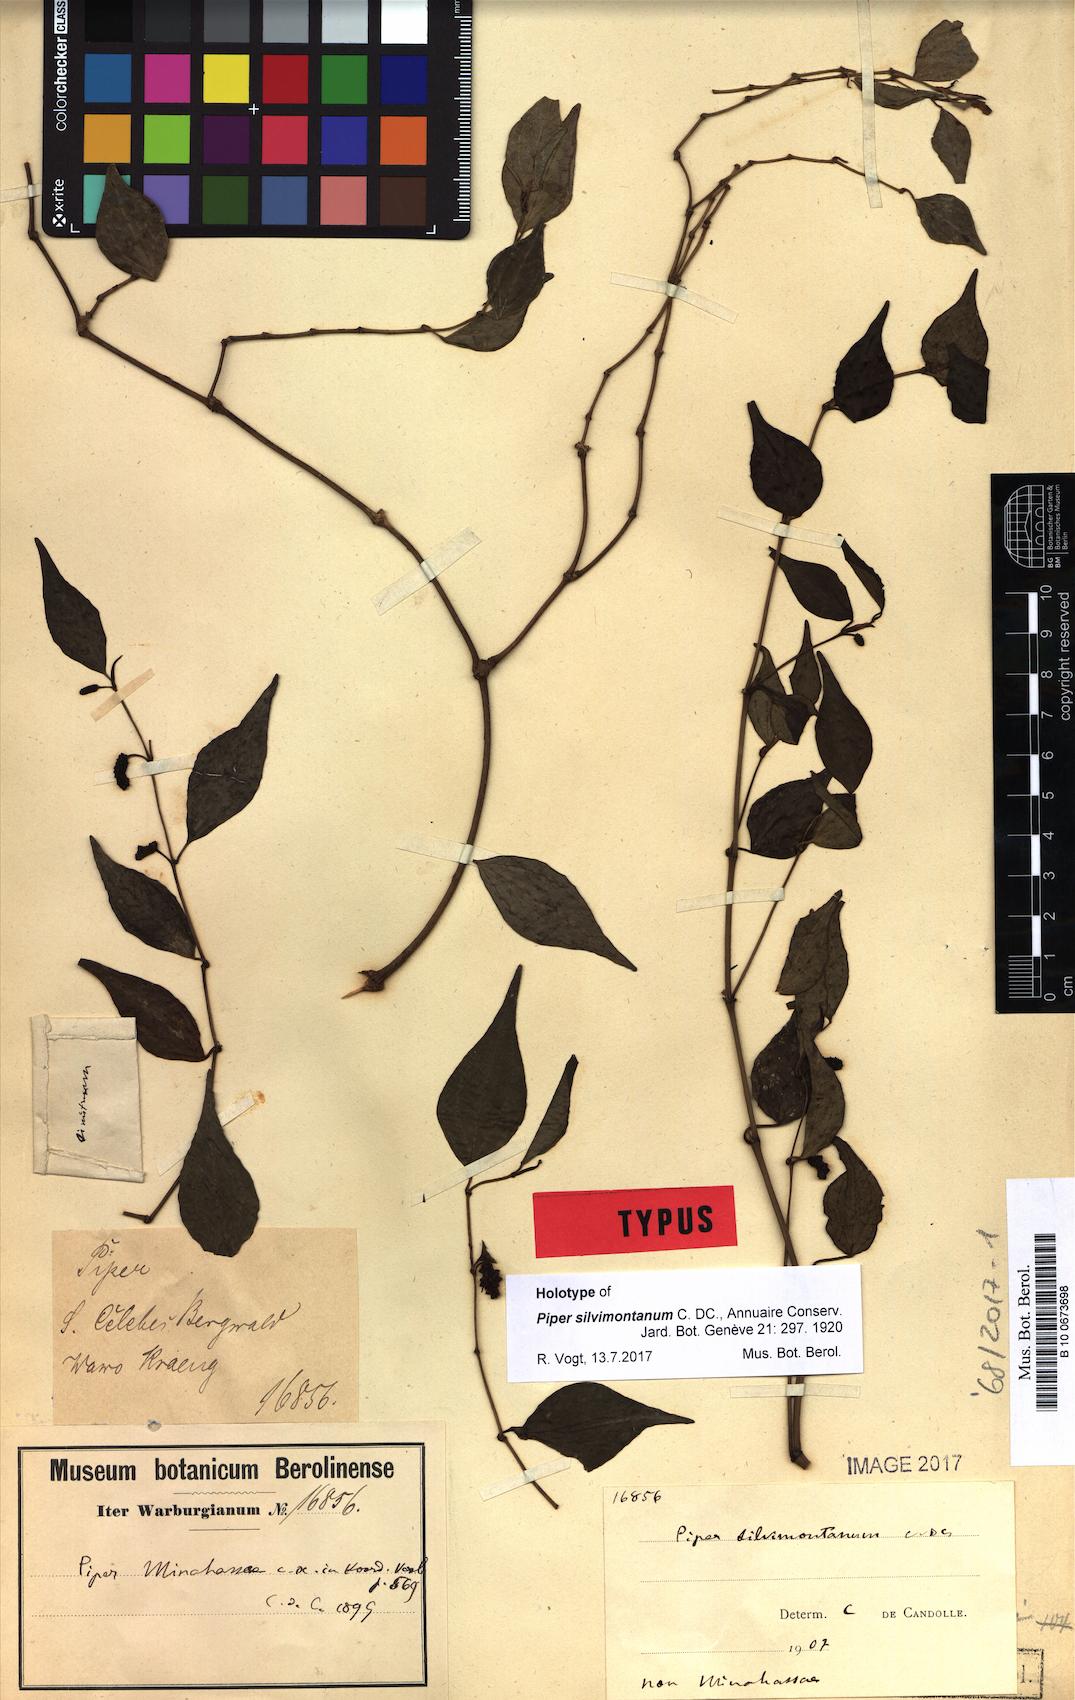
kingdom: Plantae
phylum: Tracheophyta
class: Magnoliopsida
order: Piperales
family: Piperaceae
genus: Piper
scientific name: Piper silvimontanum
